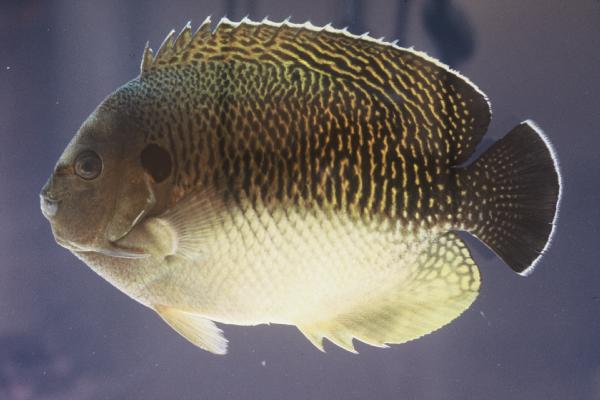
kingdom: Animalia
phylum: Chordata
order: Perciformes
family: Pomacanthidae
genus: Apolemichthys
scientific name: Apolemichthys kingi
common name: Tiger angelfish
